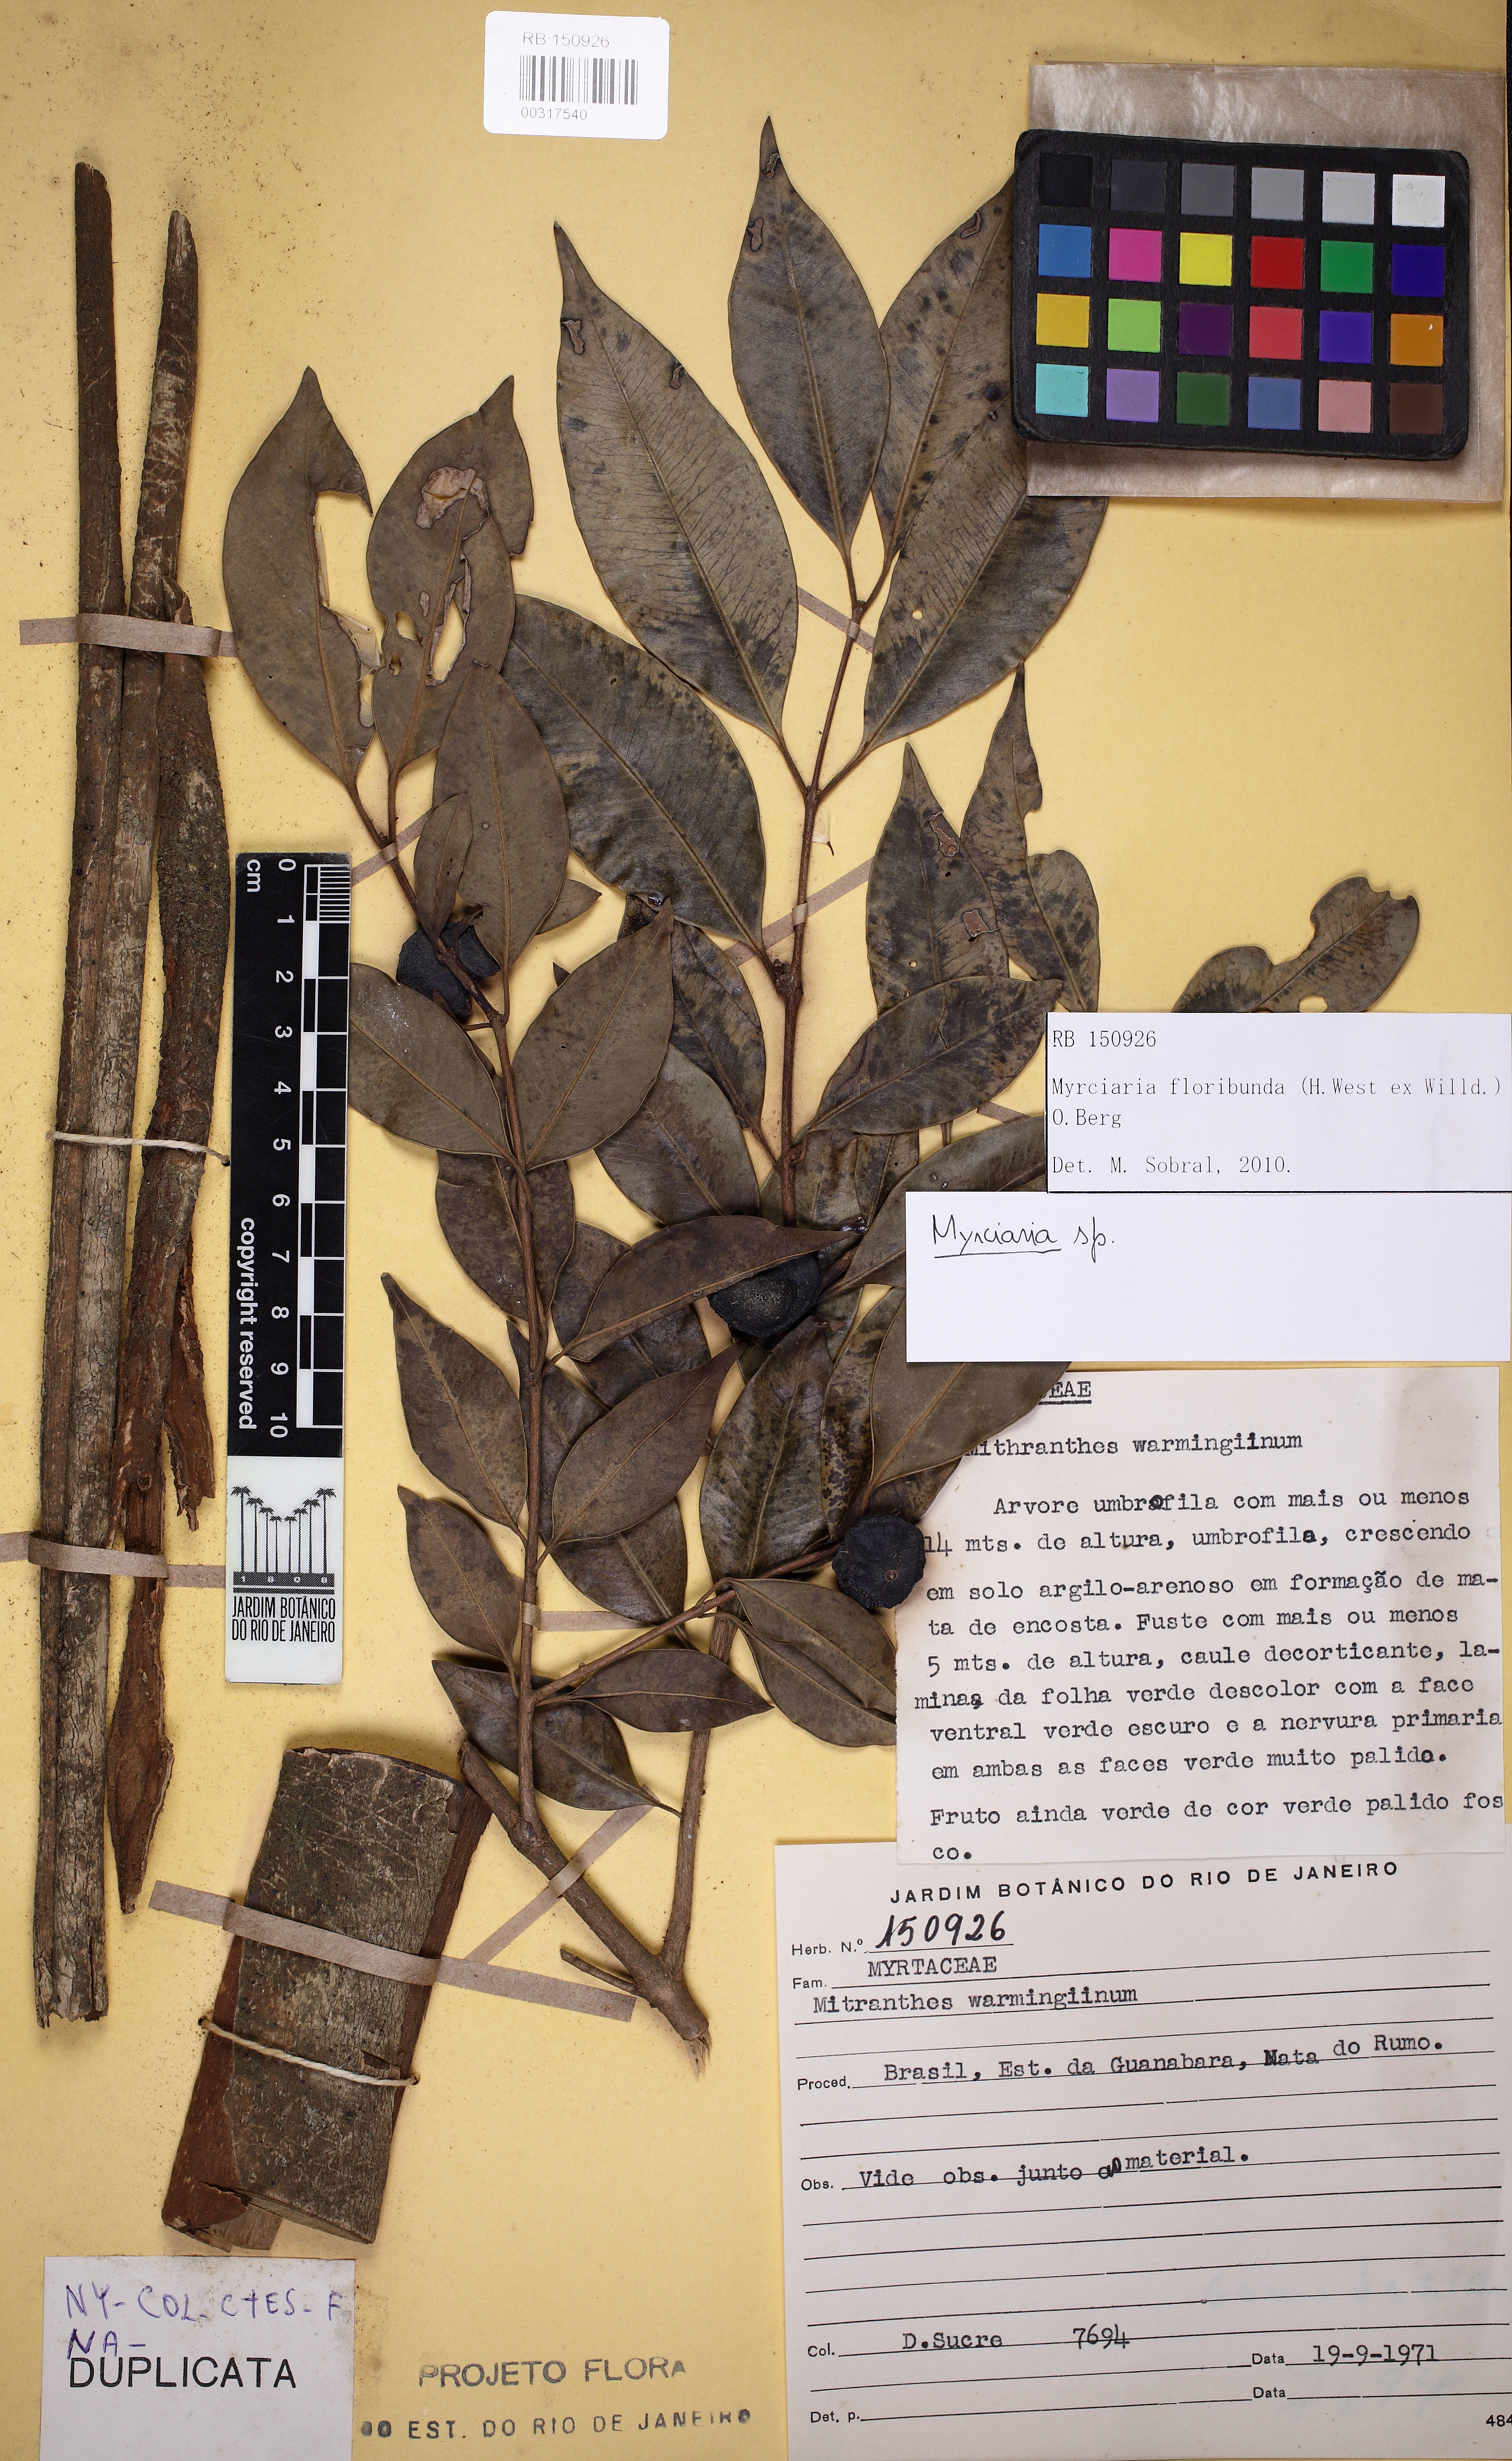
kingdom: Plantae
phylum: Tracheophyta
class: Magnoliopsida
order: Myrtales
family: Myrtaceae
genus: Myrciaria
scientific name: Myrciaria floribunda
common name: Guavaberry
